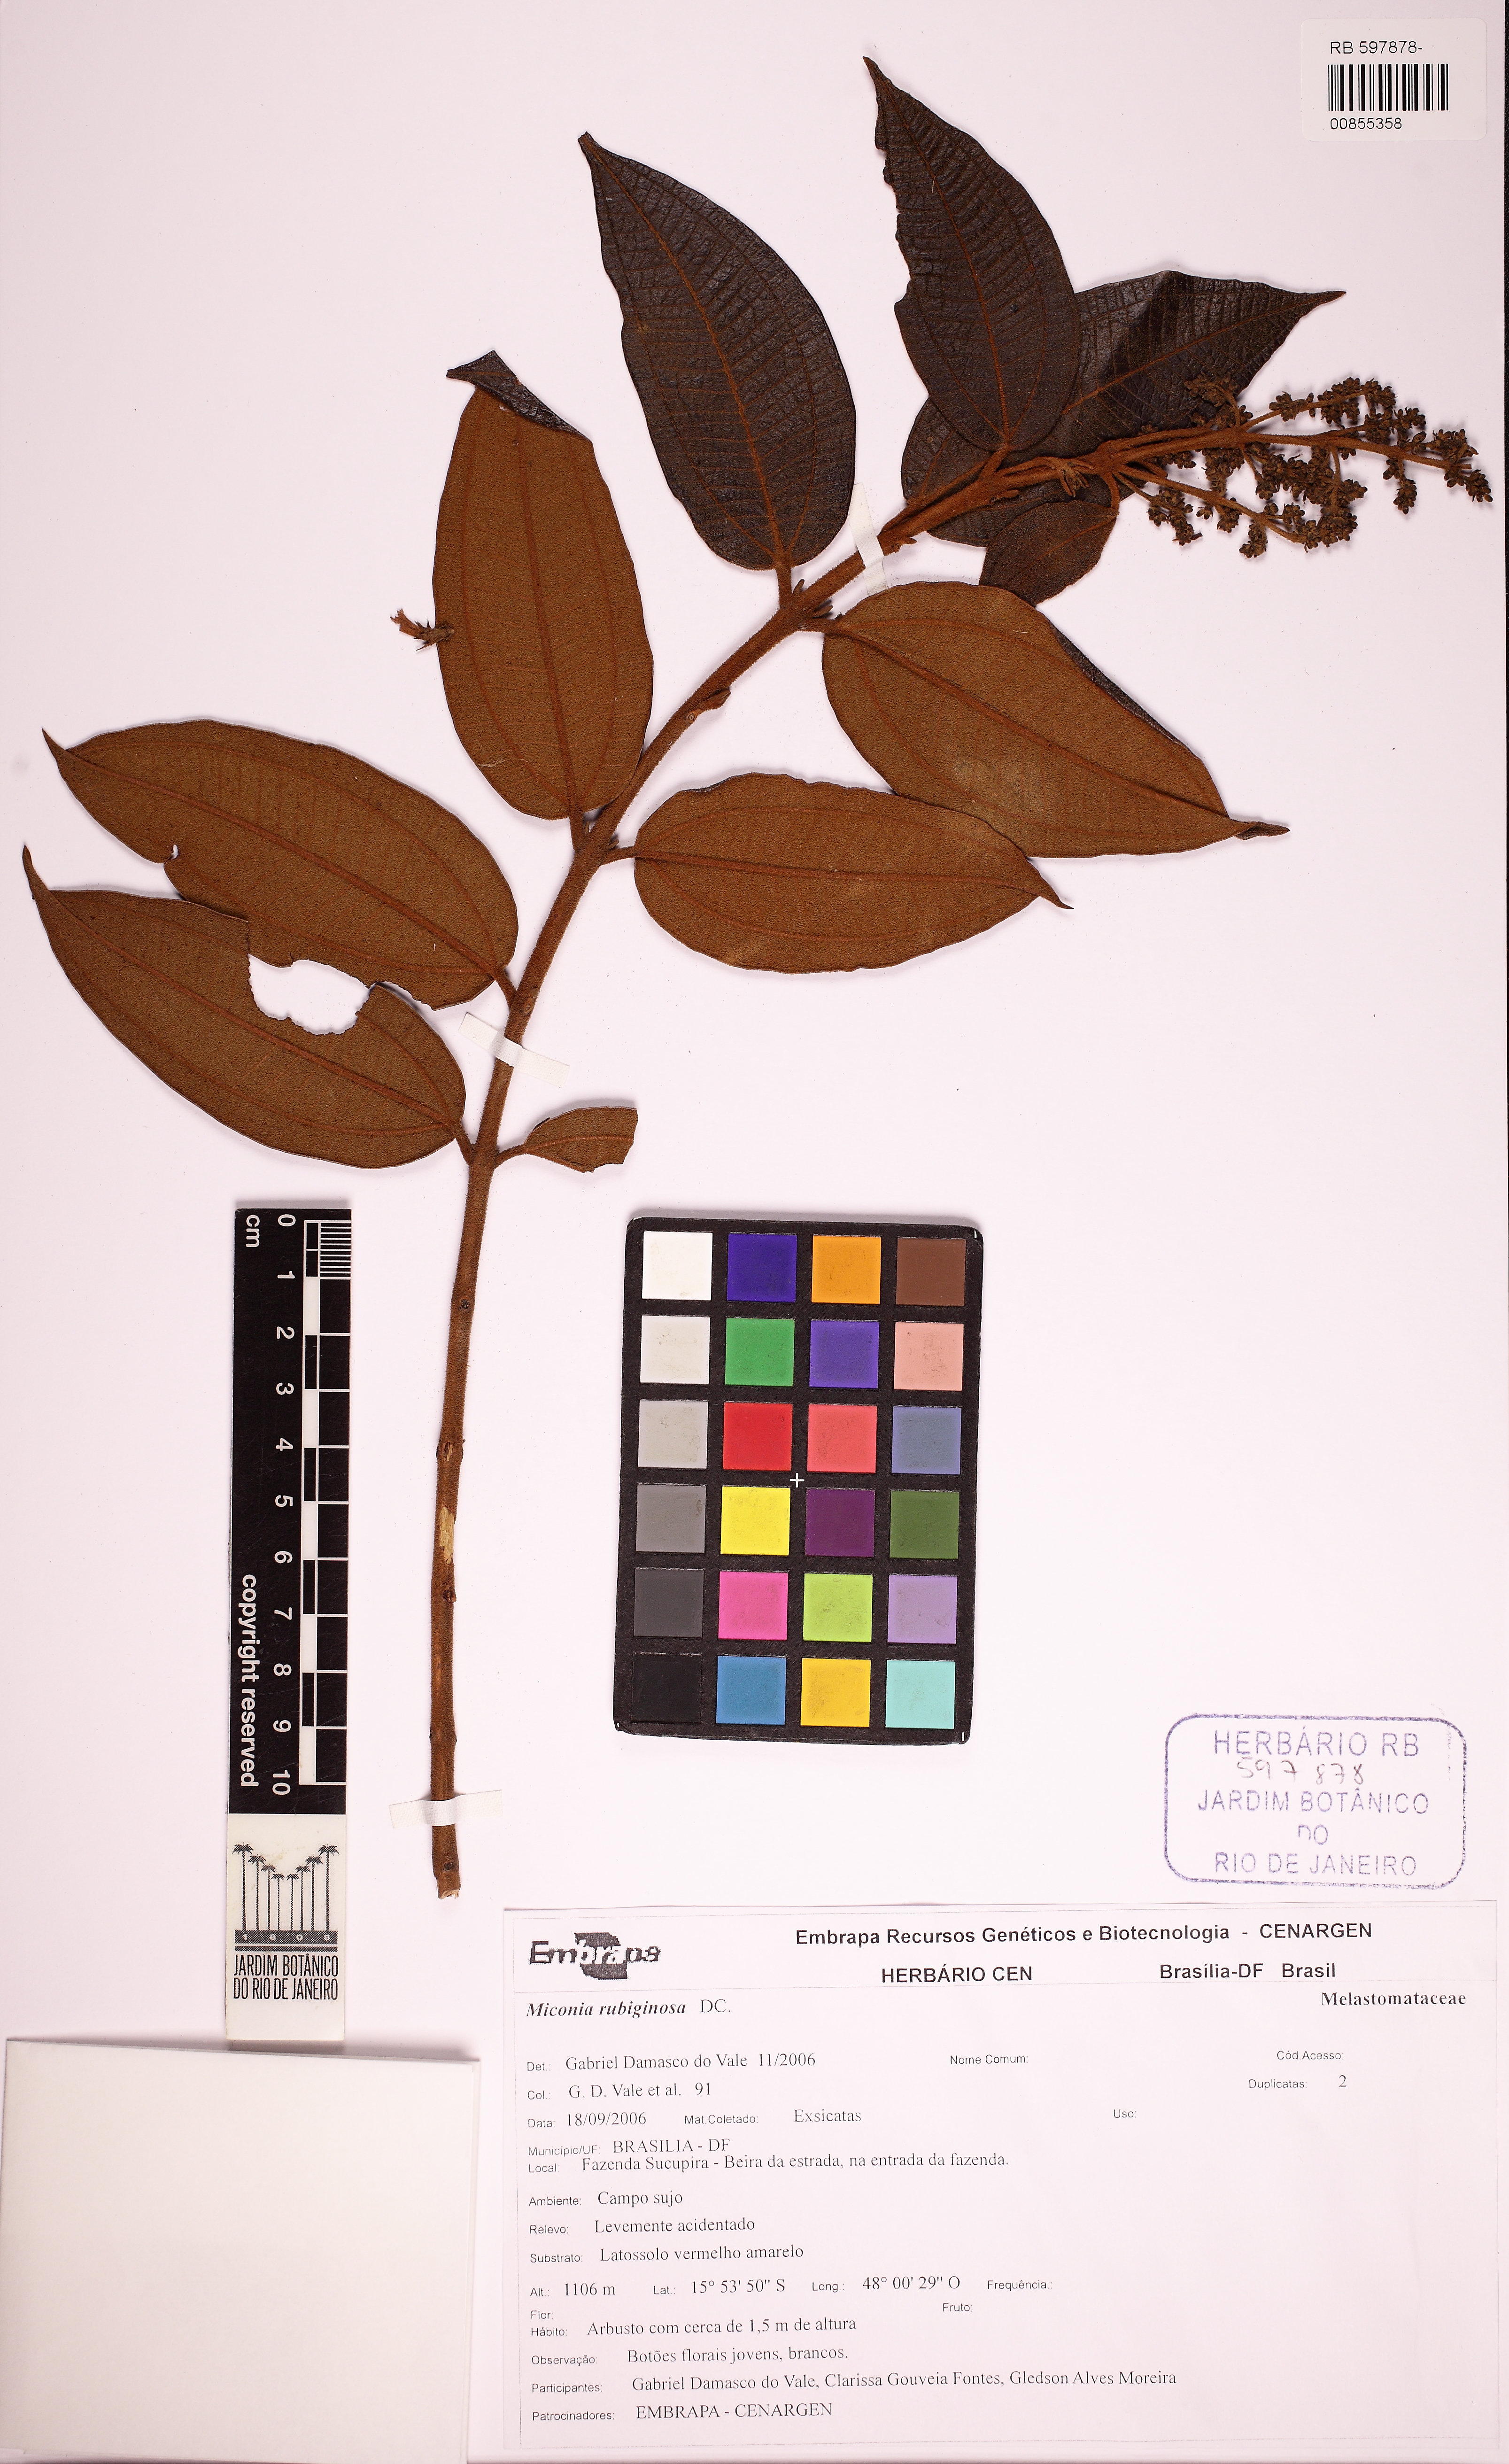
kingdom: Plantae
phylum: Tracheophyta
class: Magnoliopsida
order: Myrtales
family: Melastomataceae
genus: Miconia
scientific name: Miconia rubiginosa
